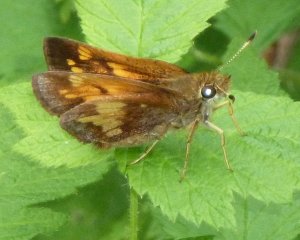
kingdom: Animalia
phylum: Arthropoda
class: Insecta
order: Lepidoptera
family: Hesperiidae
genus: Lon
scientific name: Lon hobomok
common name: Hobomok Skipper
